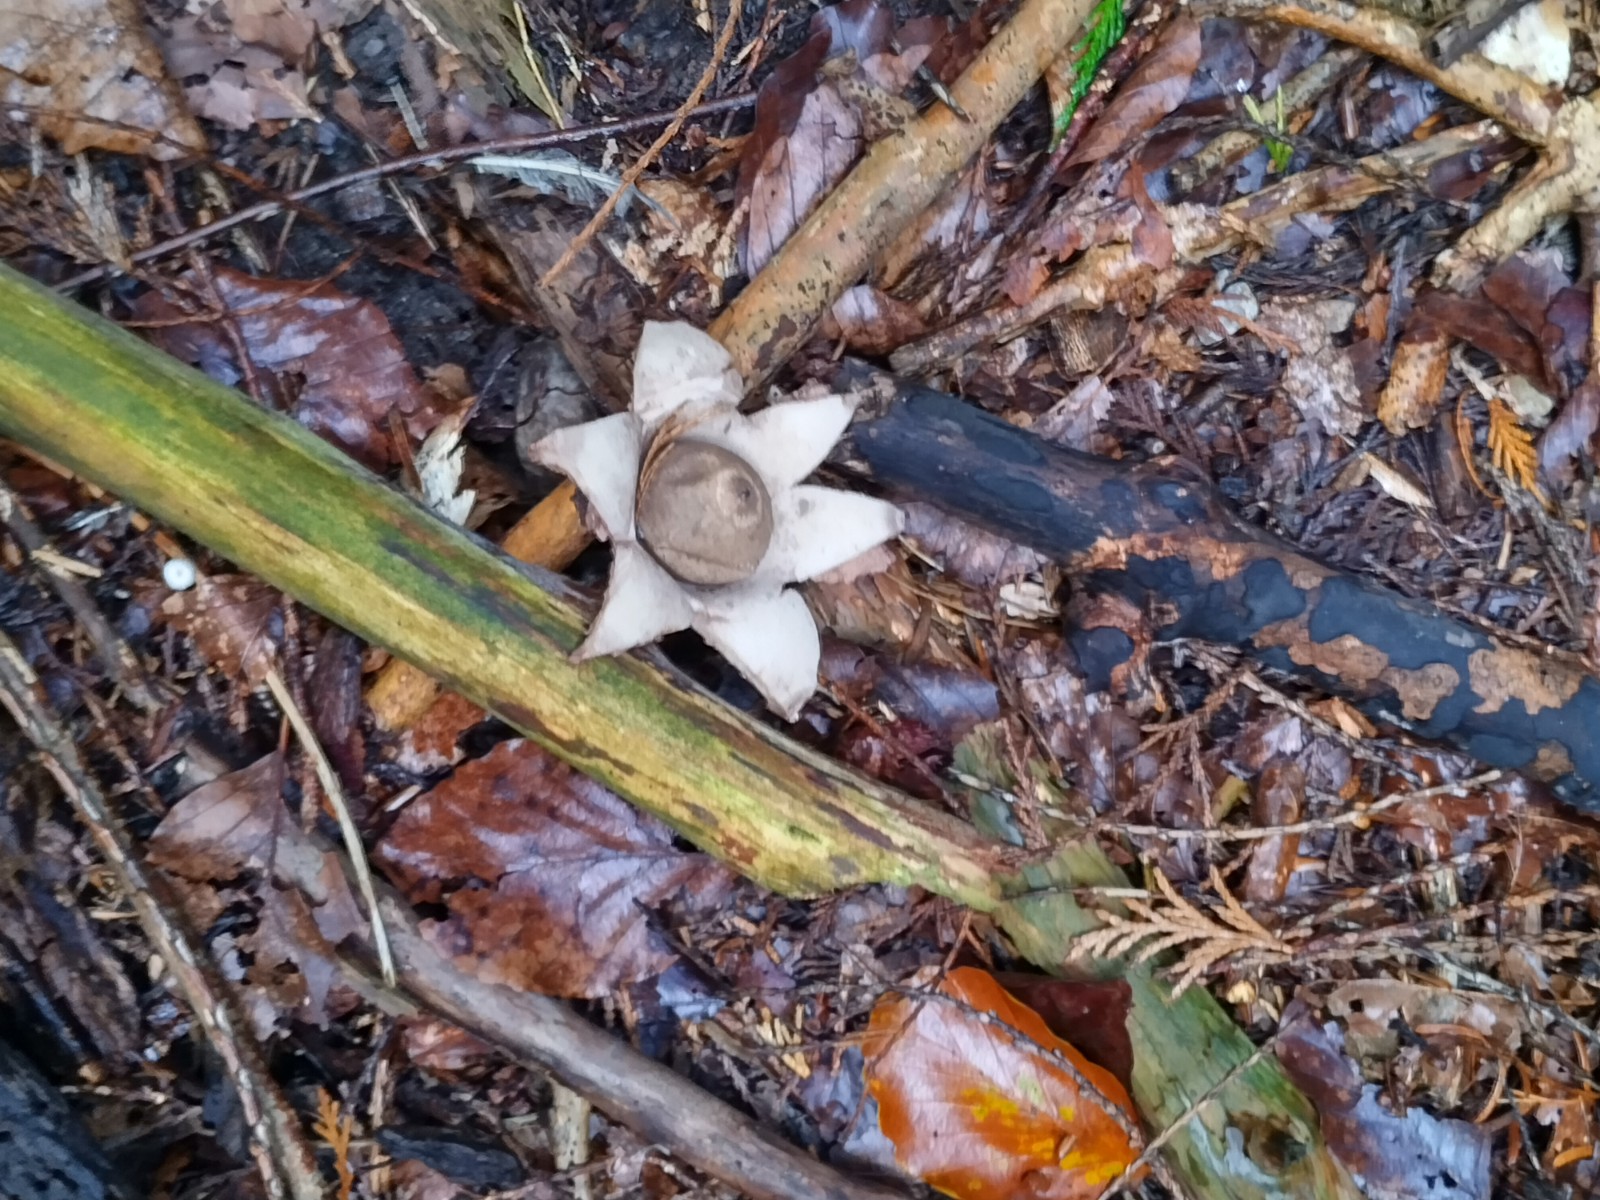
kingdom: Fungi
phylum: Basidiomycota
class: Agaricomycetes
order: Geastrales
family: Geastraceae
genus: Geastrum
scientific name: Geastrum michelianum
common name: kødet stjernebold
